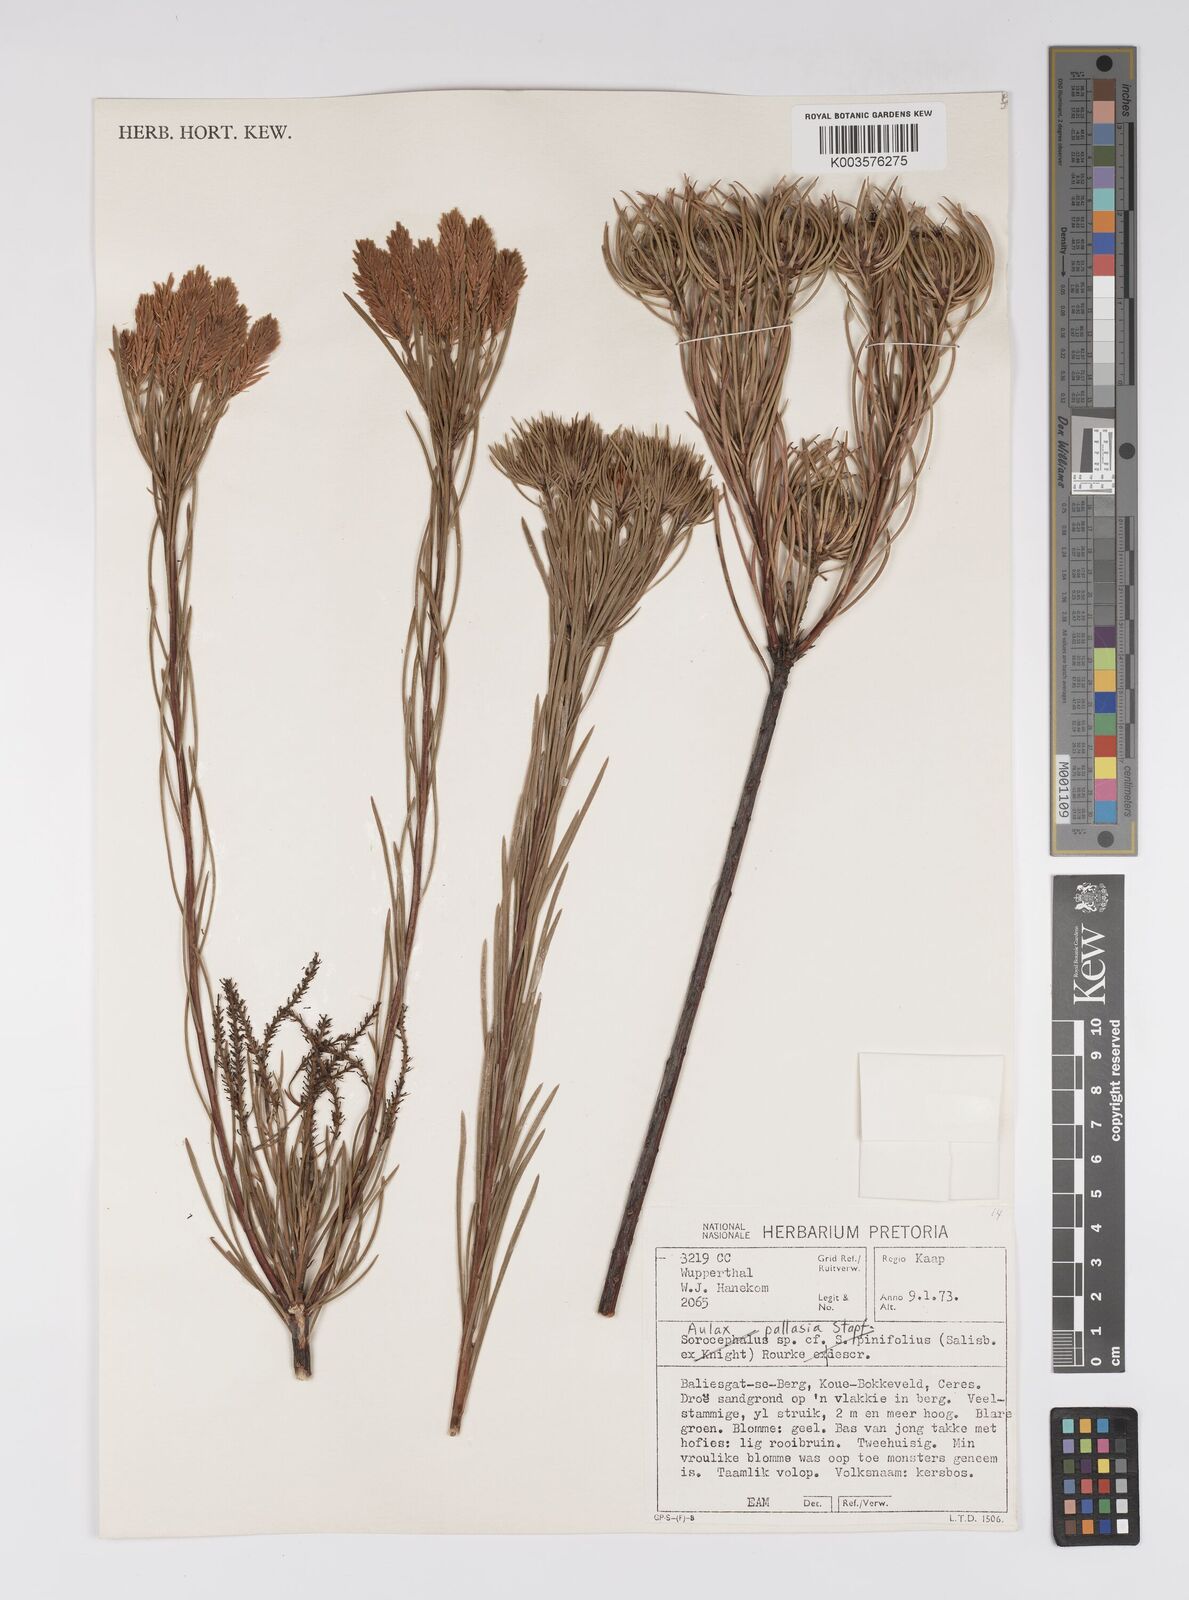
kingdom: Plantae
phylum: Tracheophyta
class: Magnoliopsida
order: Proteales
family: Proteaceae
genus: Aulax
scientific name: Aulax pallasia
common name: Needle-leaf featherbush
